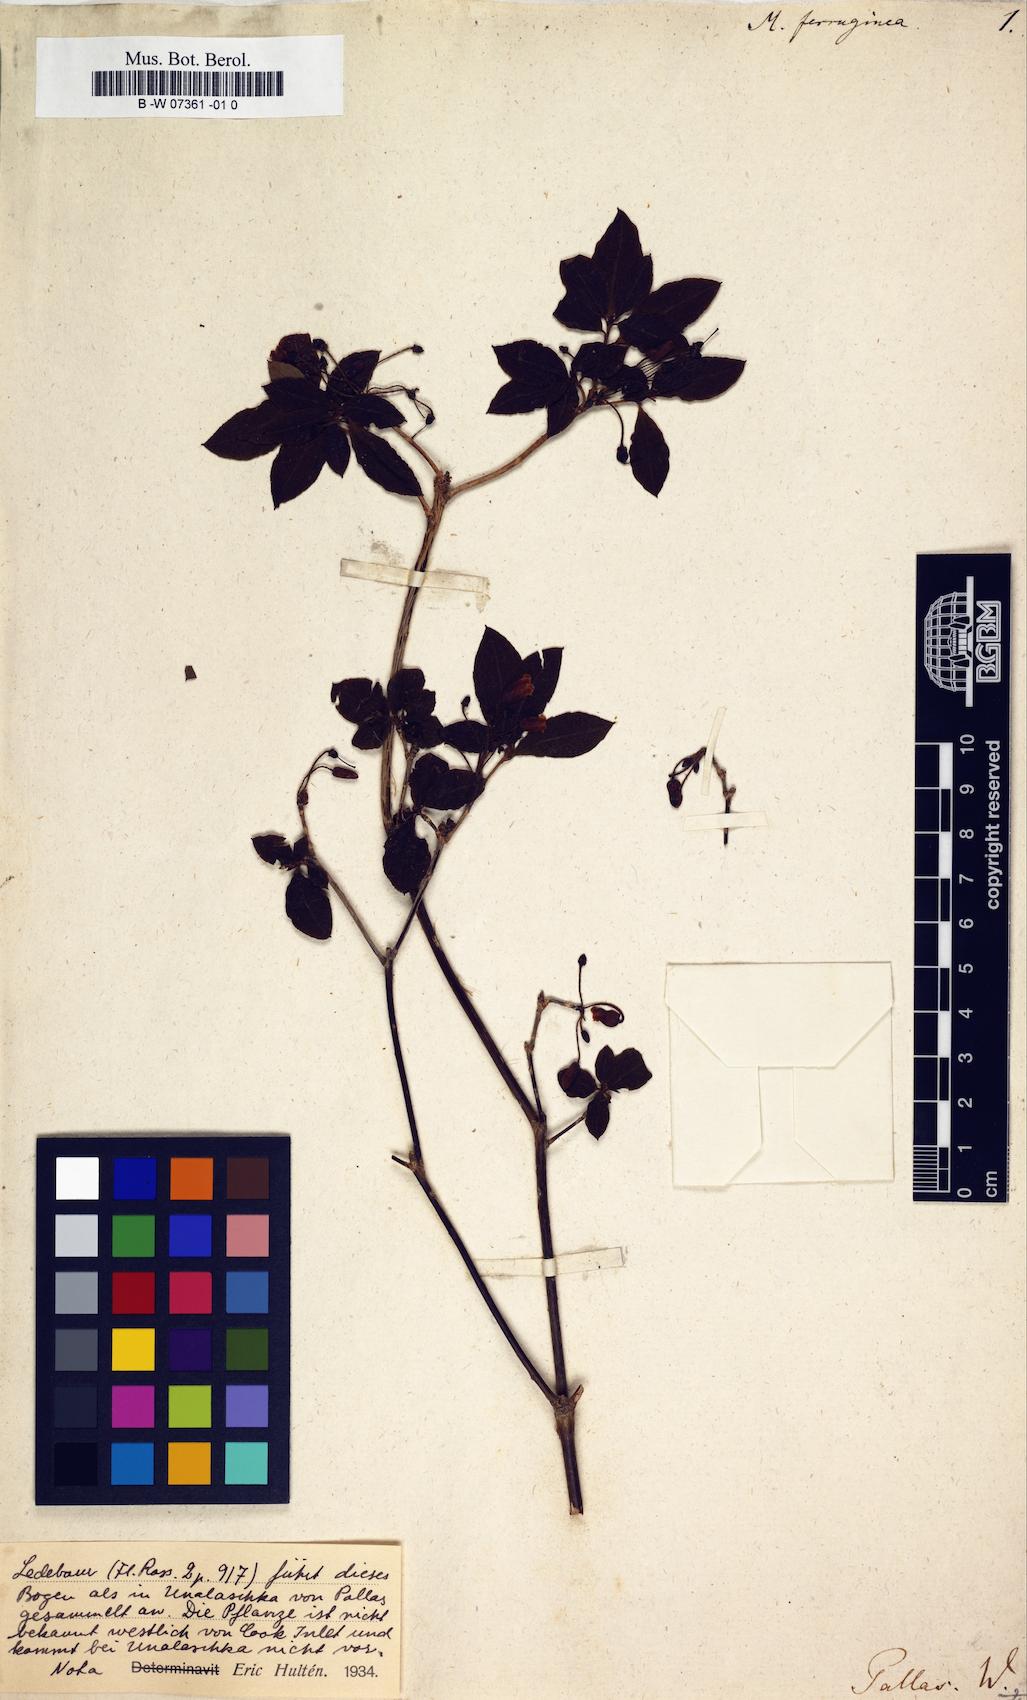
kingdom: Plantae
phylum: Tracheophyta
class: Magnoliopsida
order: Ericales
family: Ericaceae
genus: Rhododendron
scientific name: Rhododendron menziesii
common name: Pacific menziesia
